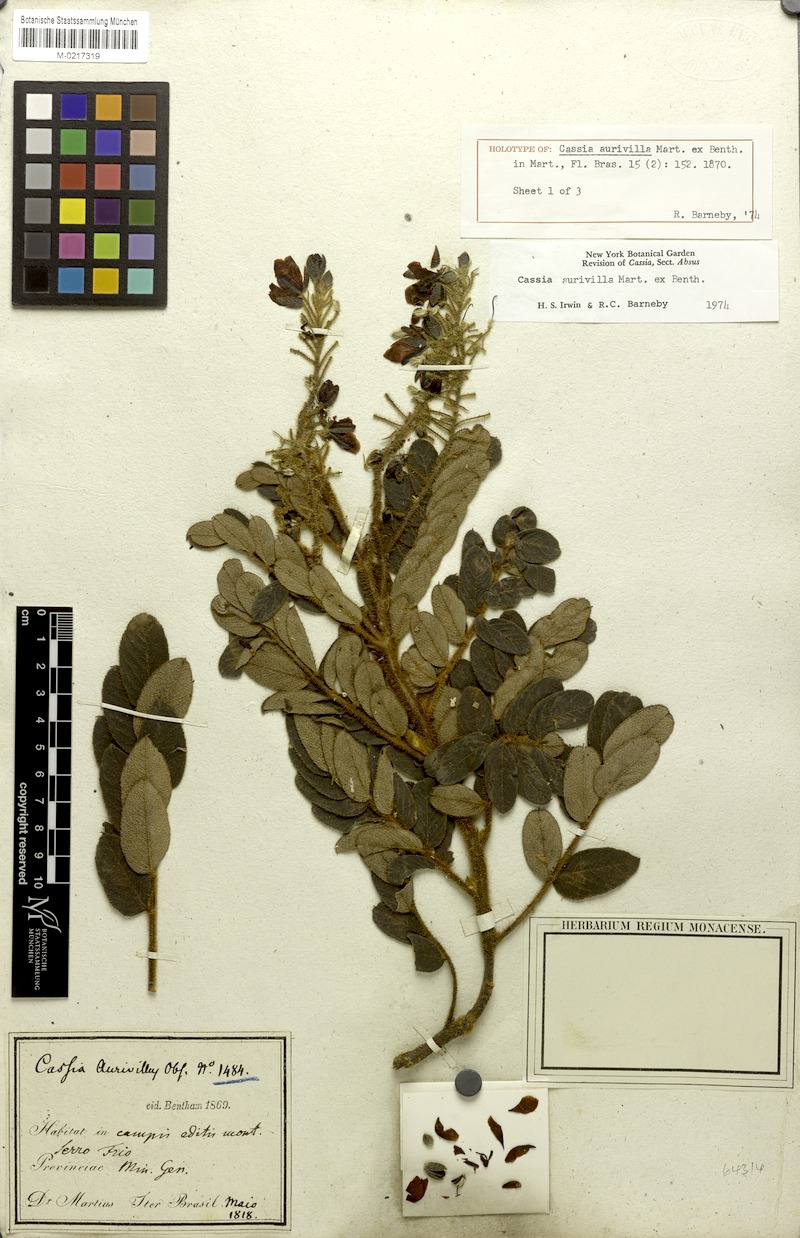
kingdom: Plantae
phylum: Tracheophyta
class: Magnoliopsida
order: Fabales
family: Fabaceae
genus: Chamaecrista
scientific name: Chamaecrista aurivilla
